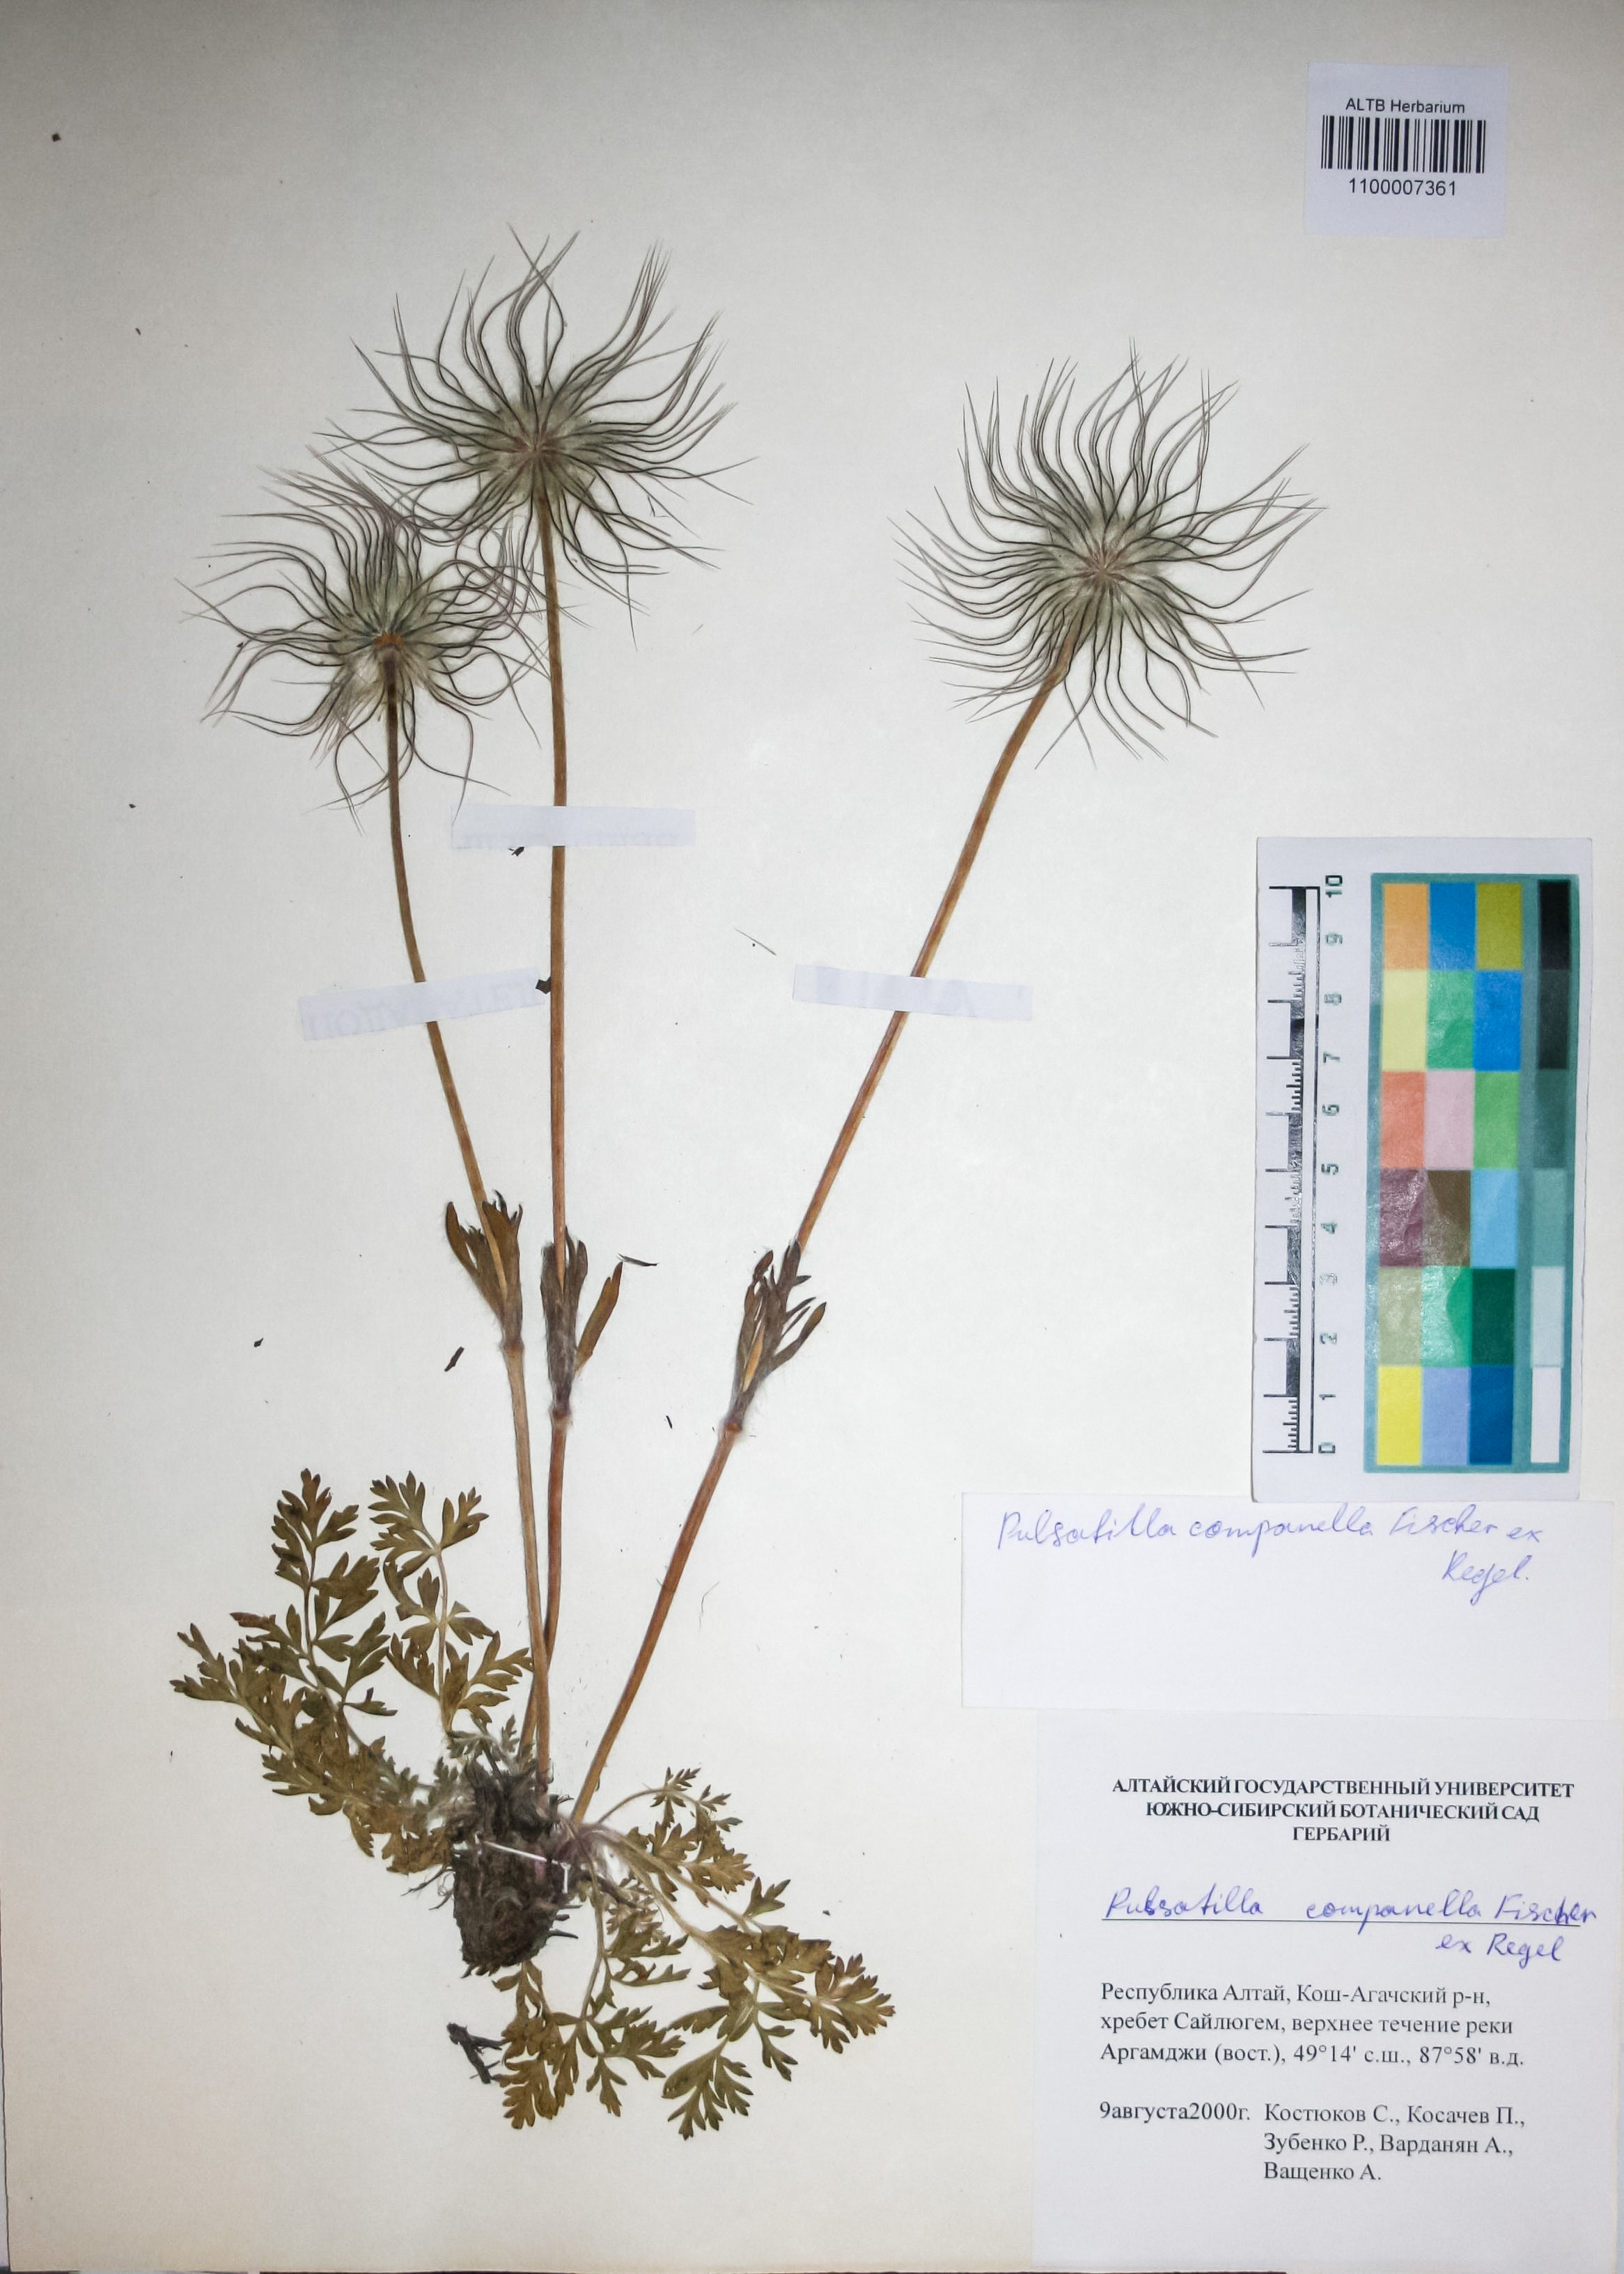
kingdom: Plantae
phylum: Tracheophyta
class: Magnoliopsida
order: Ranunculales
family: Ranunculaceae
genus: Pulsatilla
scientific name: Pulsatilla campanella
